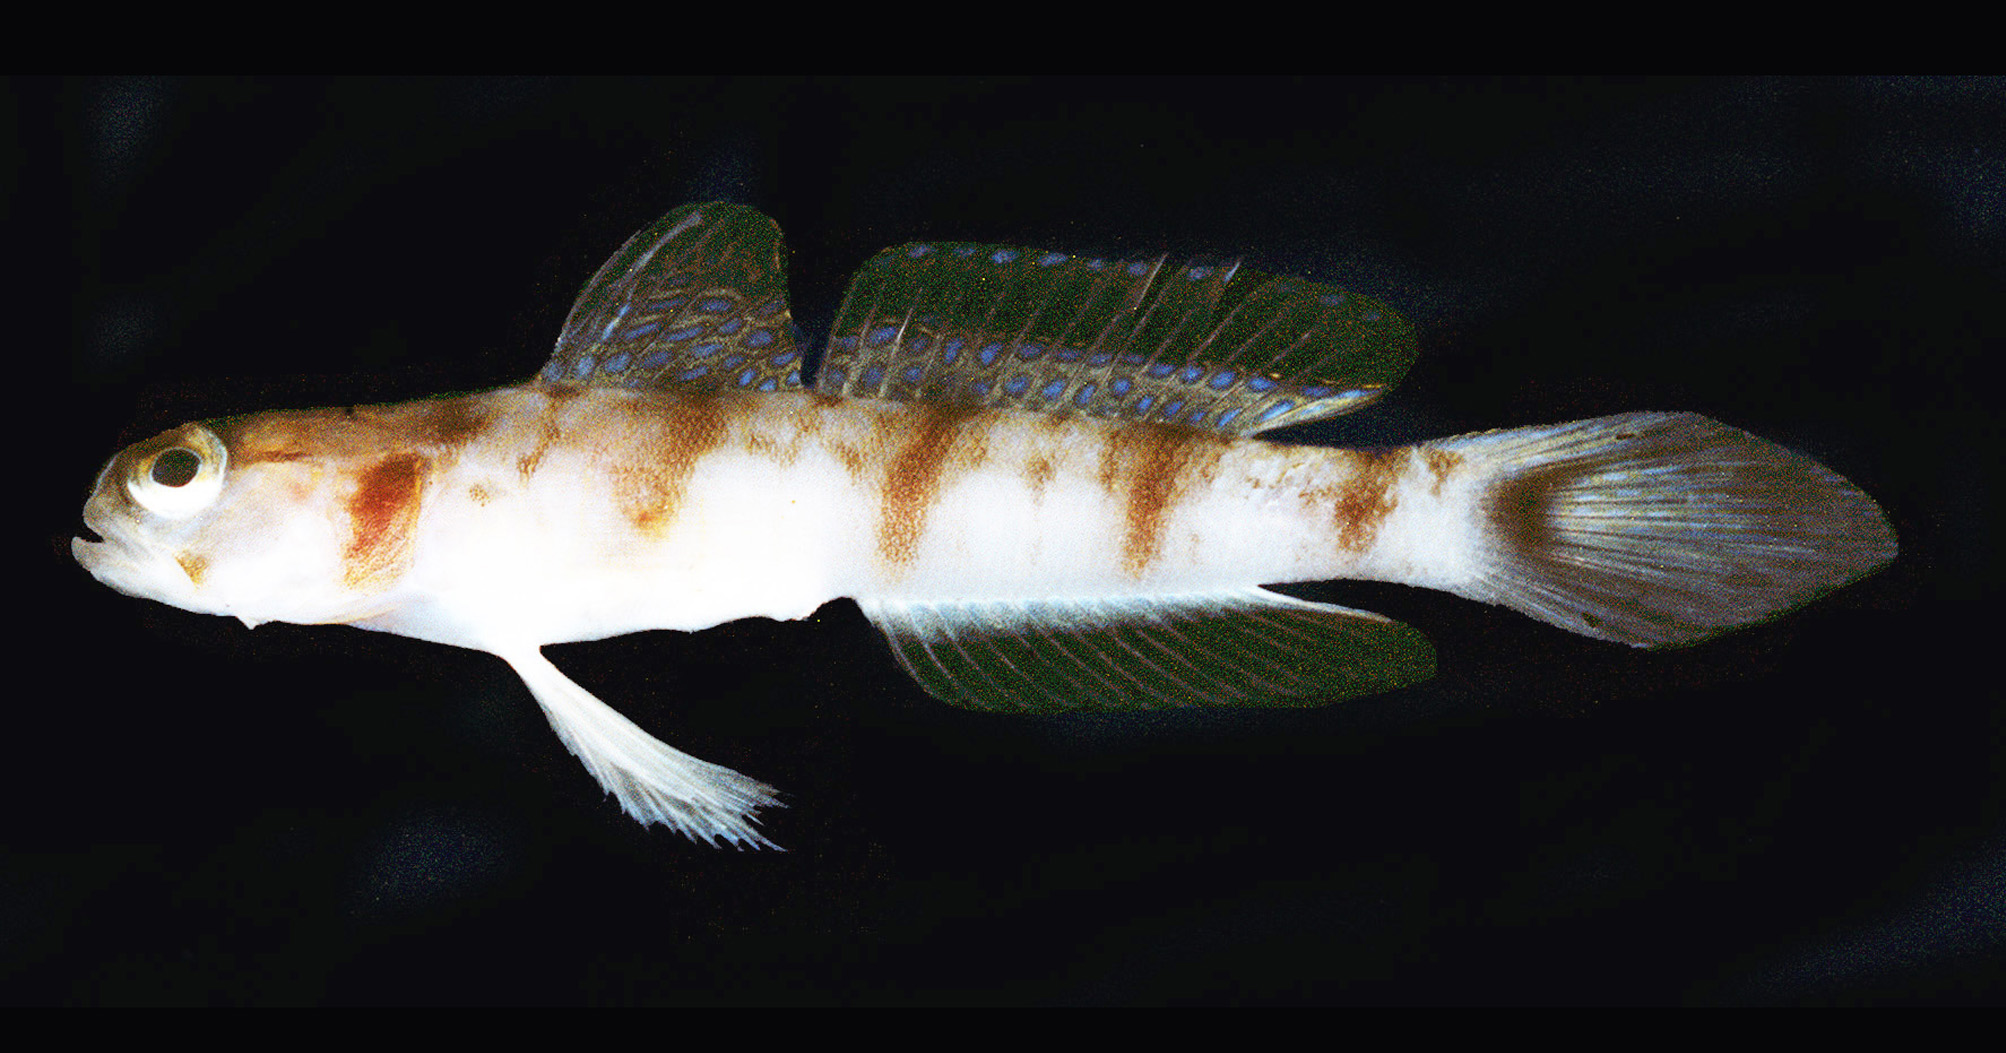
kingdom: Animalia
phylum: Chordata
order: Perciformes
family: Gobiidae
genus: Amblyeleotris
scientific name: Amblyeleotris neglecta
